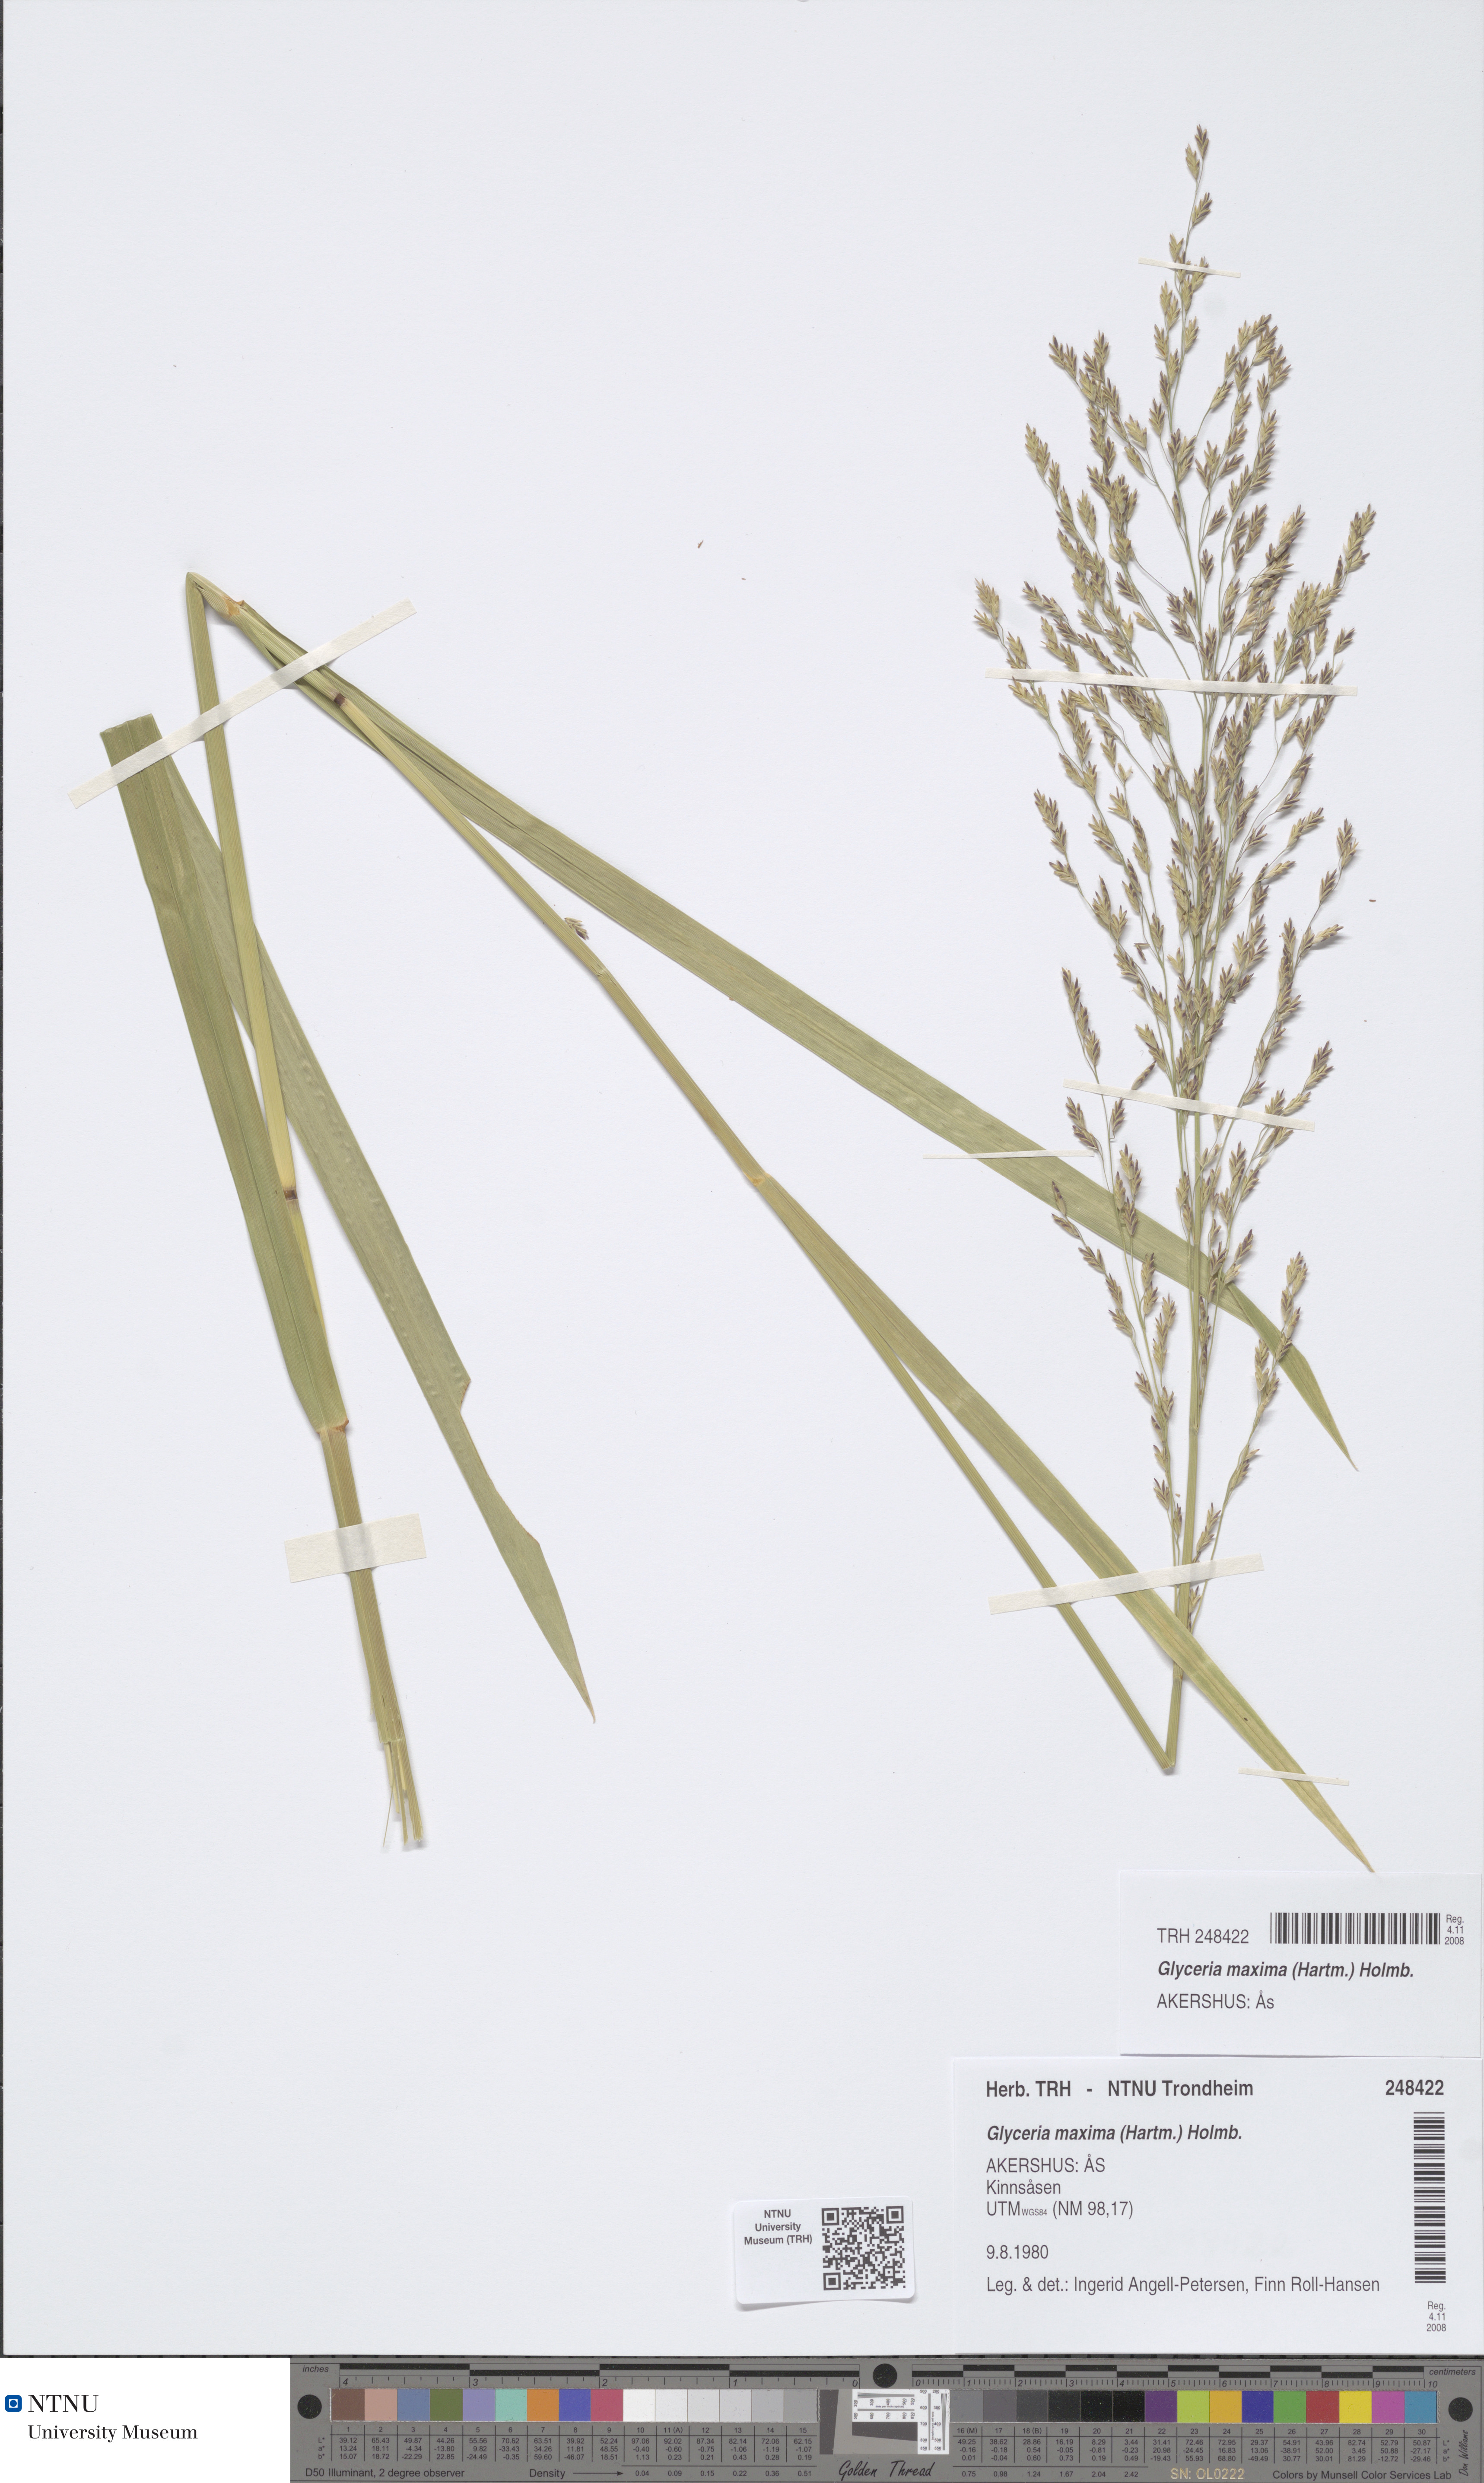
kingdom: Plantae
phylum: Tracheophyta
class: Liliopsida
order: Poales
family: Poaceae
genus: Glyceria
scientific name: Glyceria maxima
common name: Reed mannagrass
